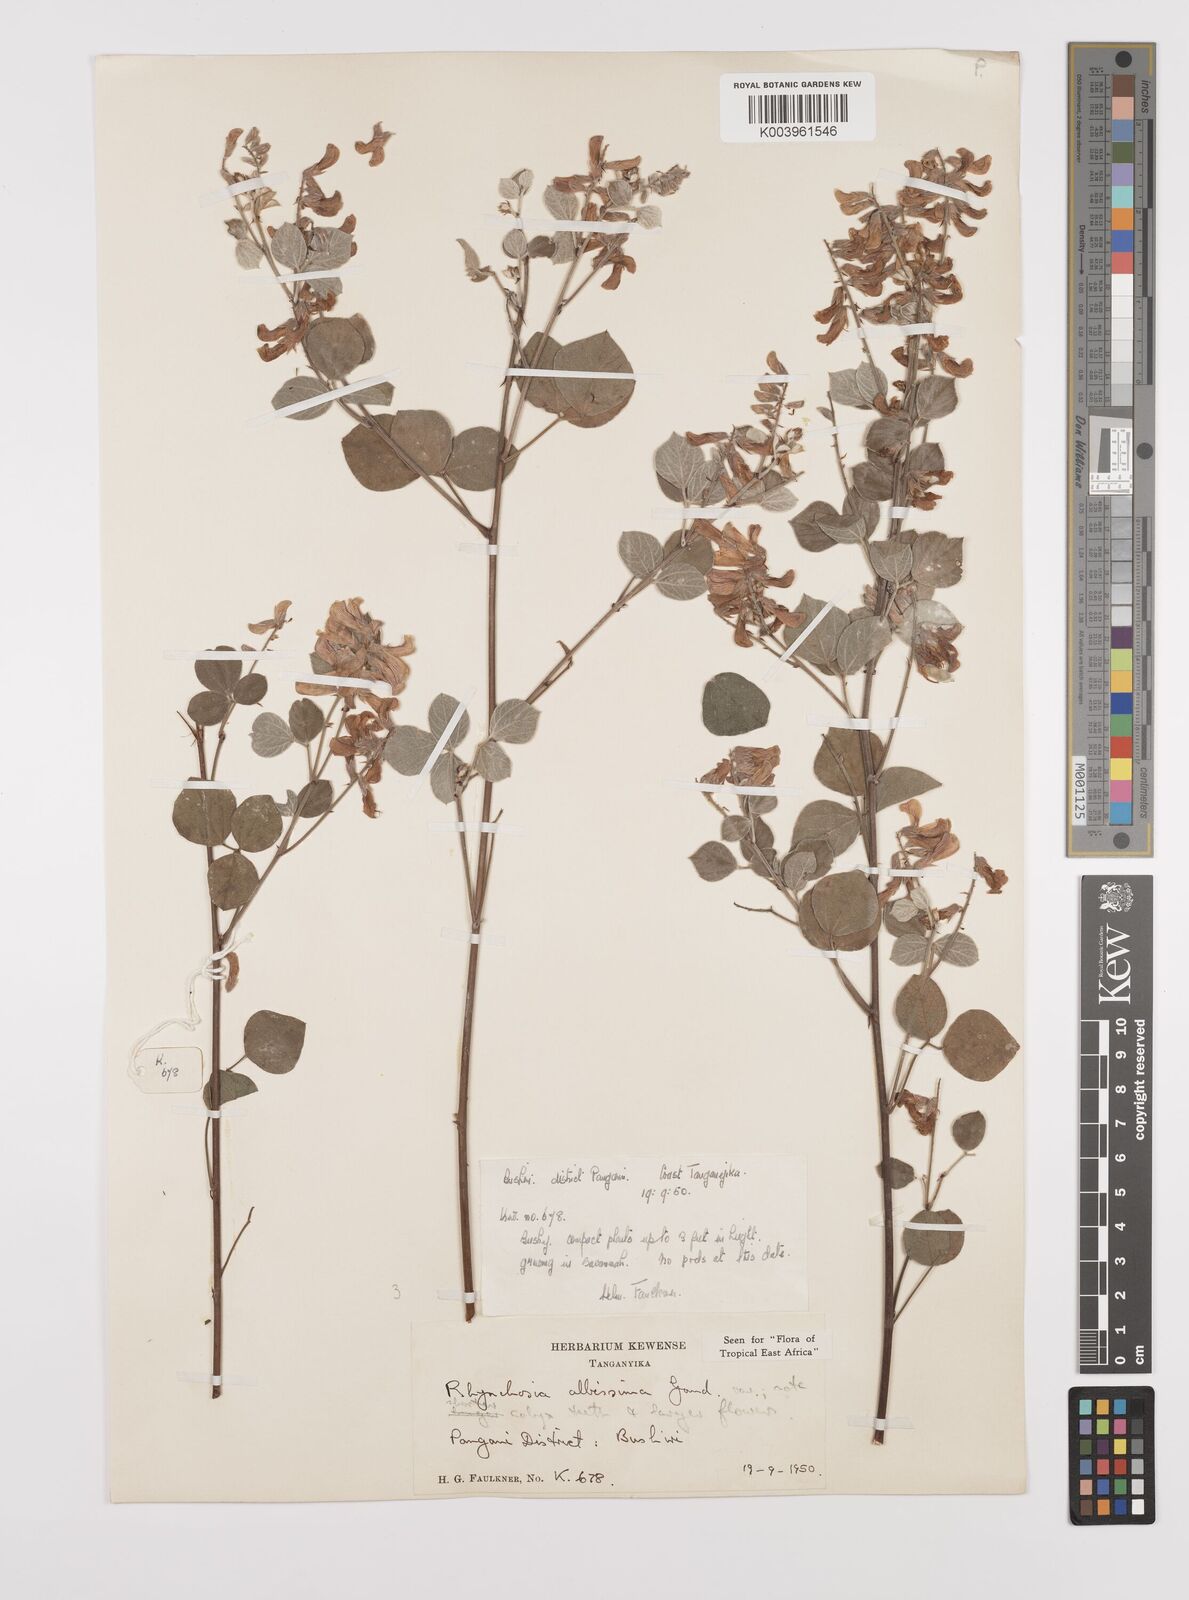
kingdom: Plantae
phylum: Tracheophyta
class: Magnoliopsida
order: Fabales
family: Fabaceae
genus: Rhynchosia
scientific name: Rhynchosia albissima
